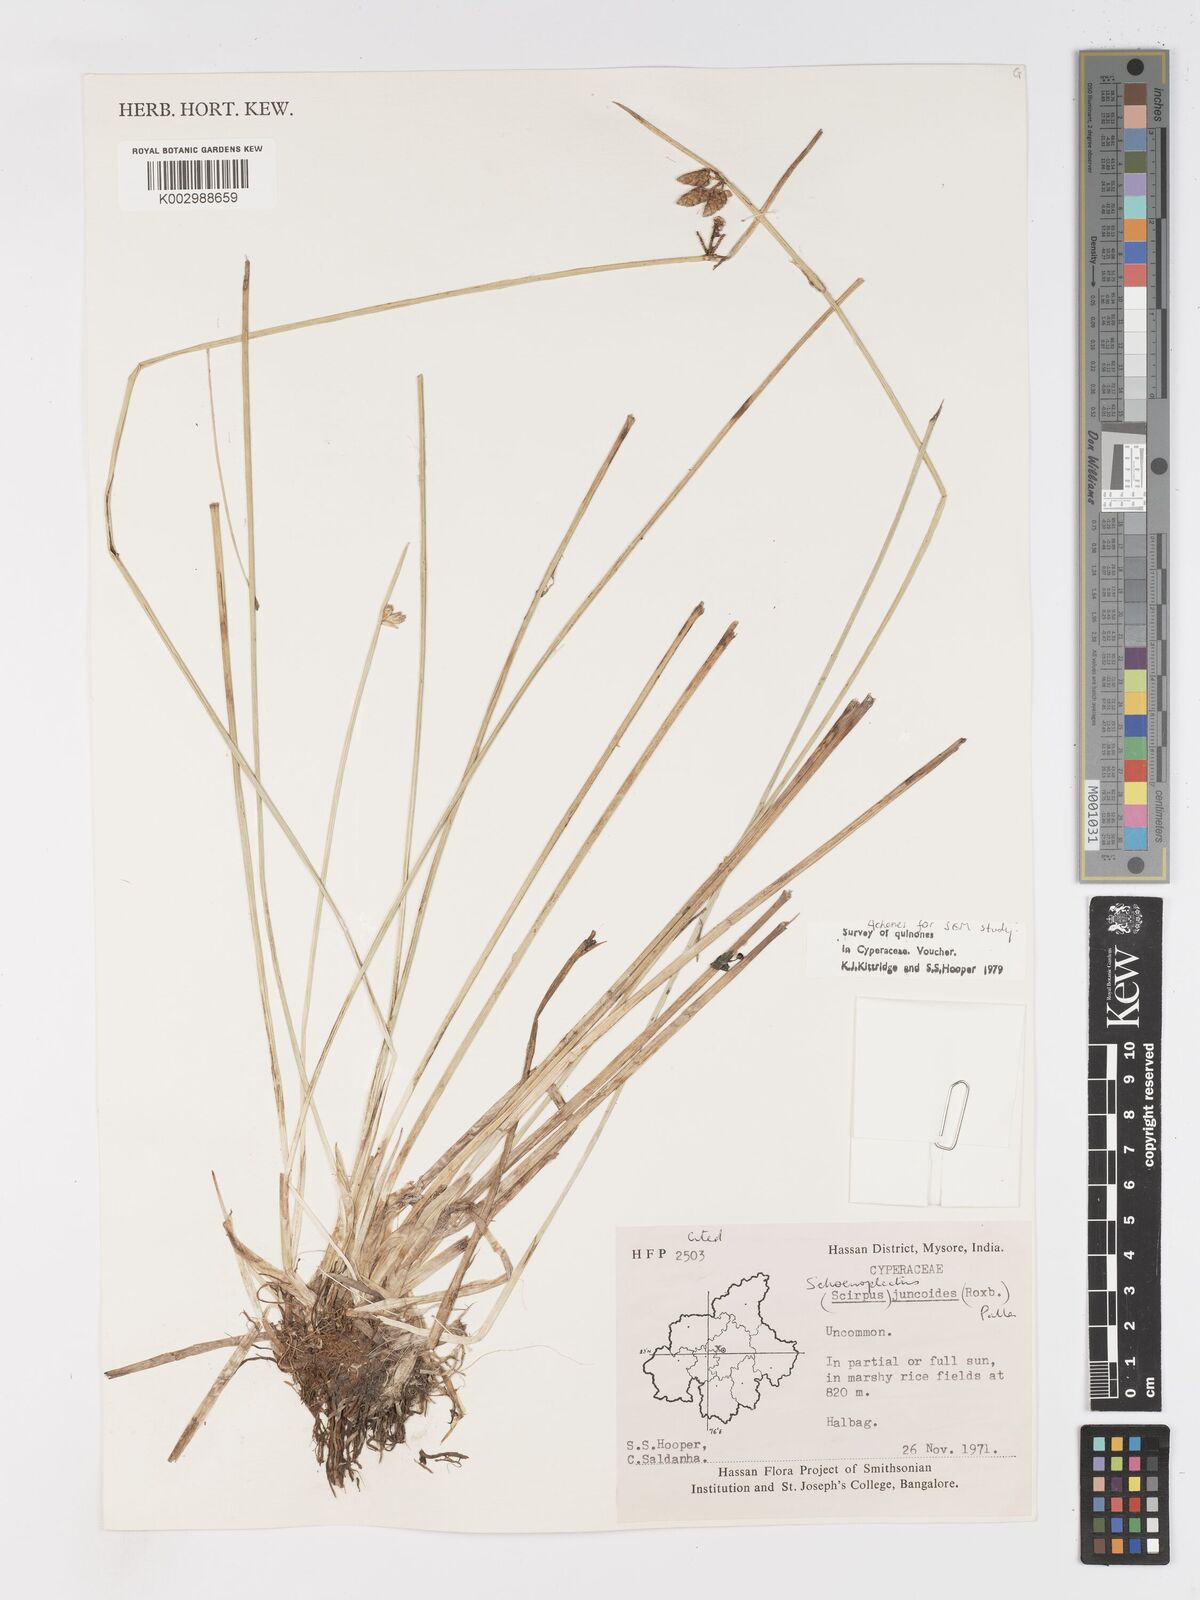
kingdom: Plantae
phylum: Tracheophyta
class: Liliopsida
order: Poales
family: Cyperaceae
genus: Schoenoplectiella
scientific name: Schoenoplectiella juncoides
